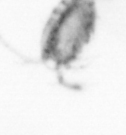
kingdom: Animalia
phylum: Arthropoda
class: Copepoda
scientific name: Copepoda
